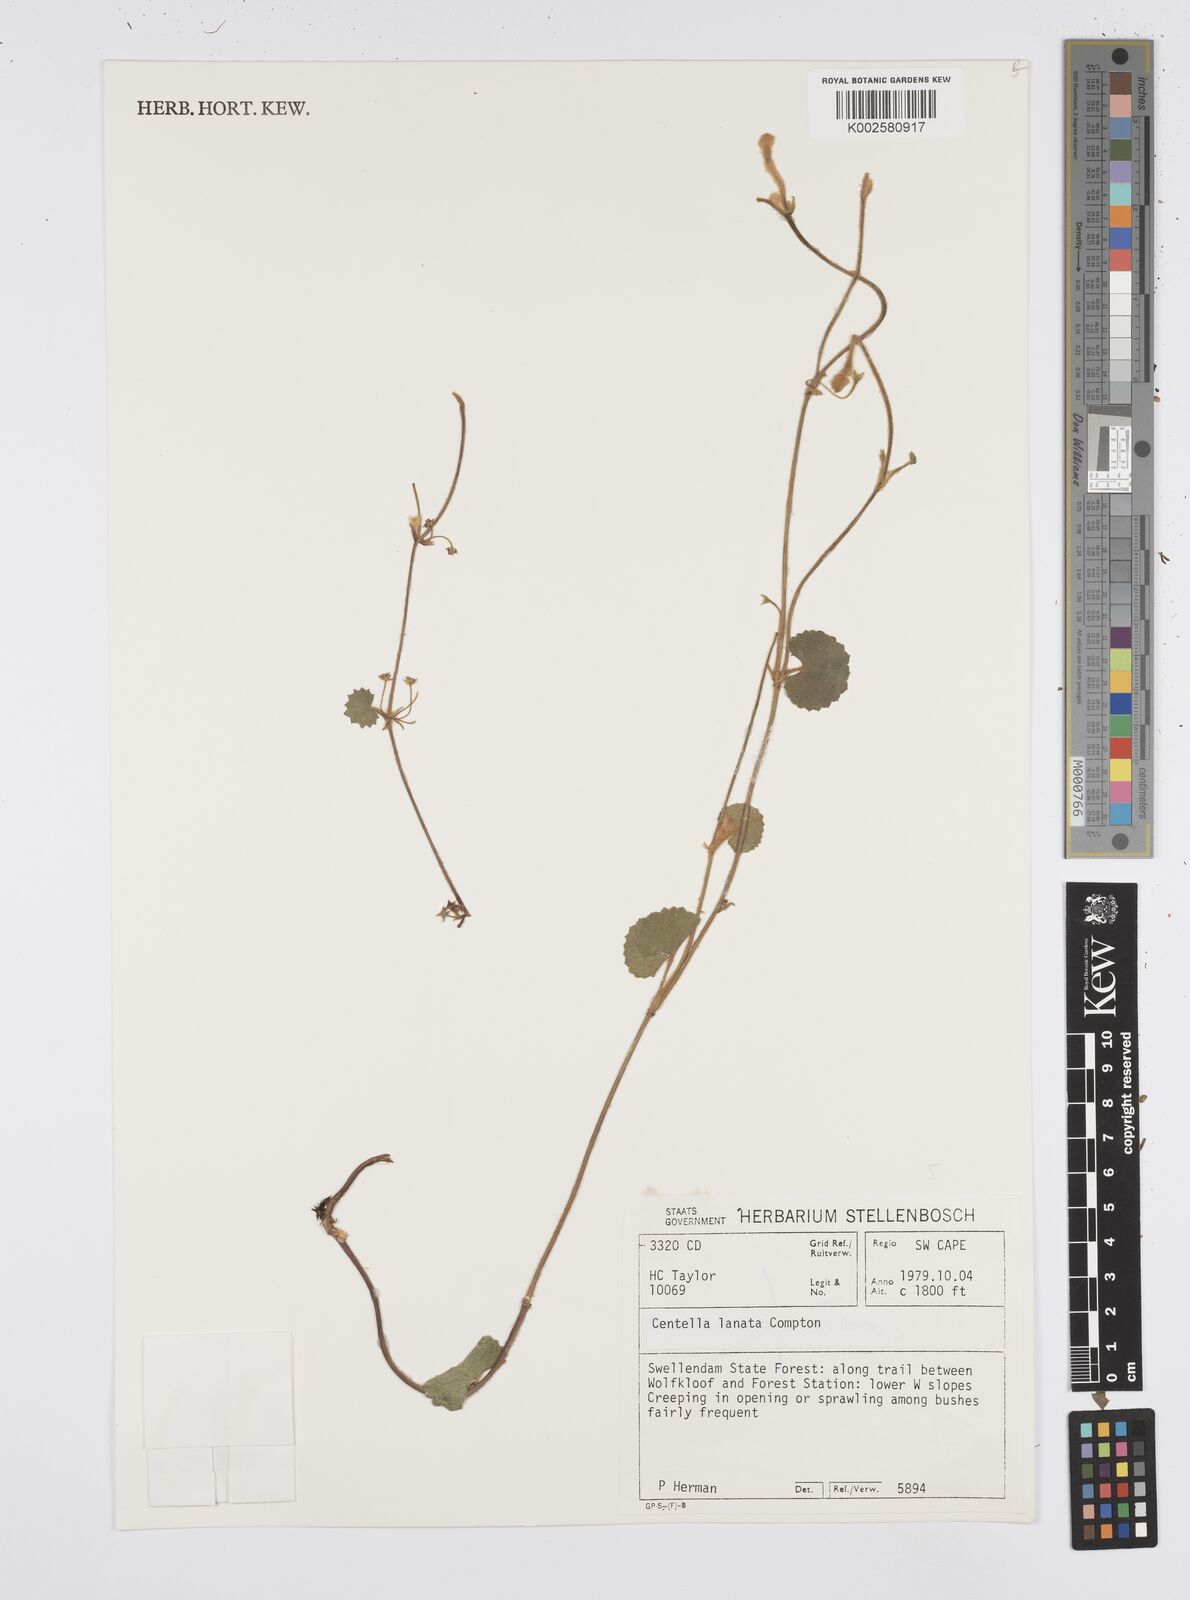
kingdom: Plantae
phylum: Tracheophyta
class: Magnoliopsida
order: Apiales
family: Apiaceae
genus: Centella
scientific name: Centella lanata
